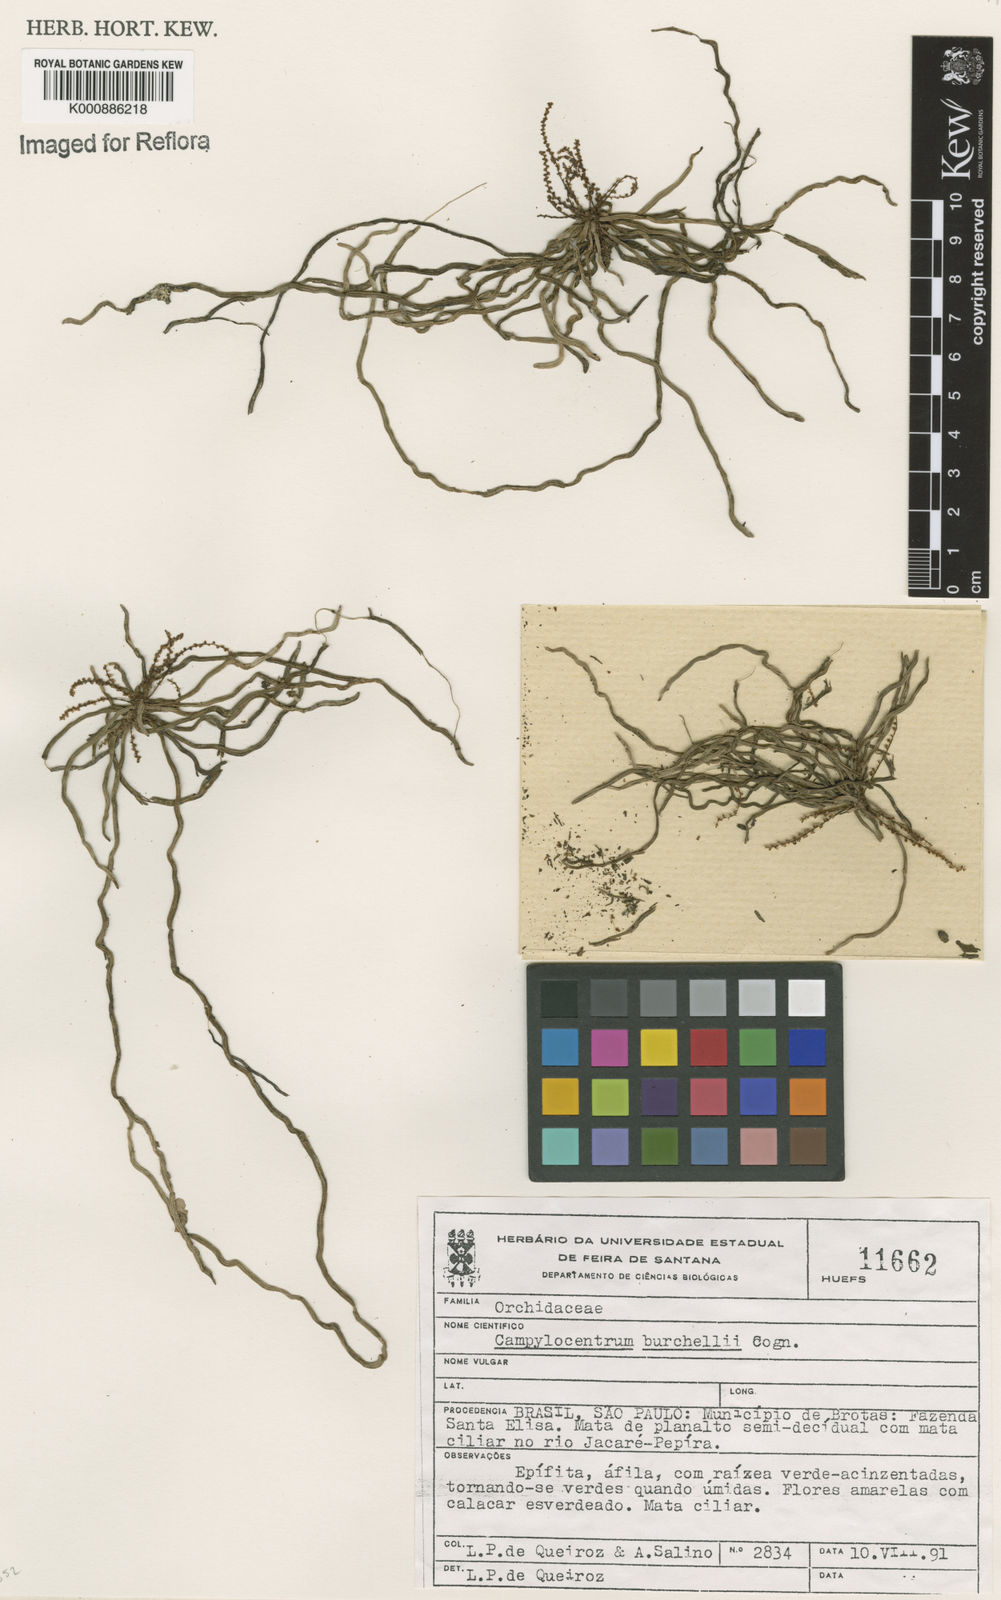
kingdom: Plantae
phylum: Tracheophyta
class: Liliopsida
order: Asparagales
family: Orchidaceae
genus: Campylocentrum
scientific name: Campylocentrum grisebachii
